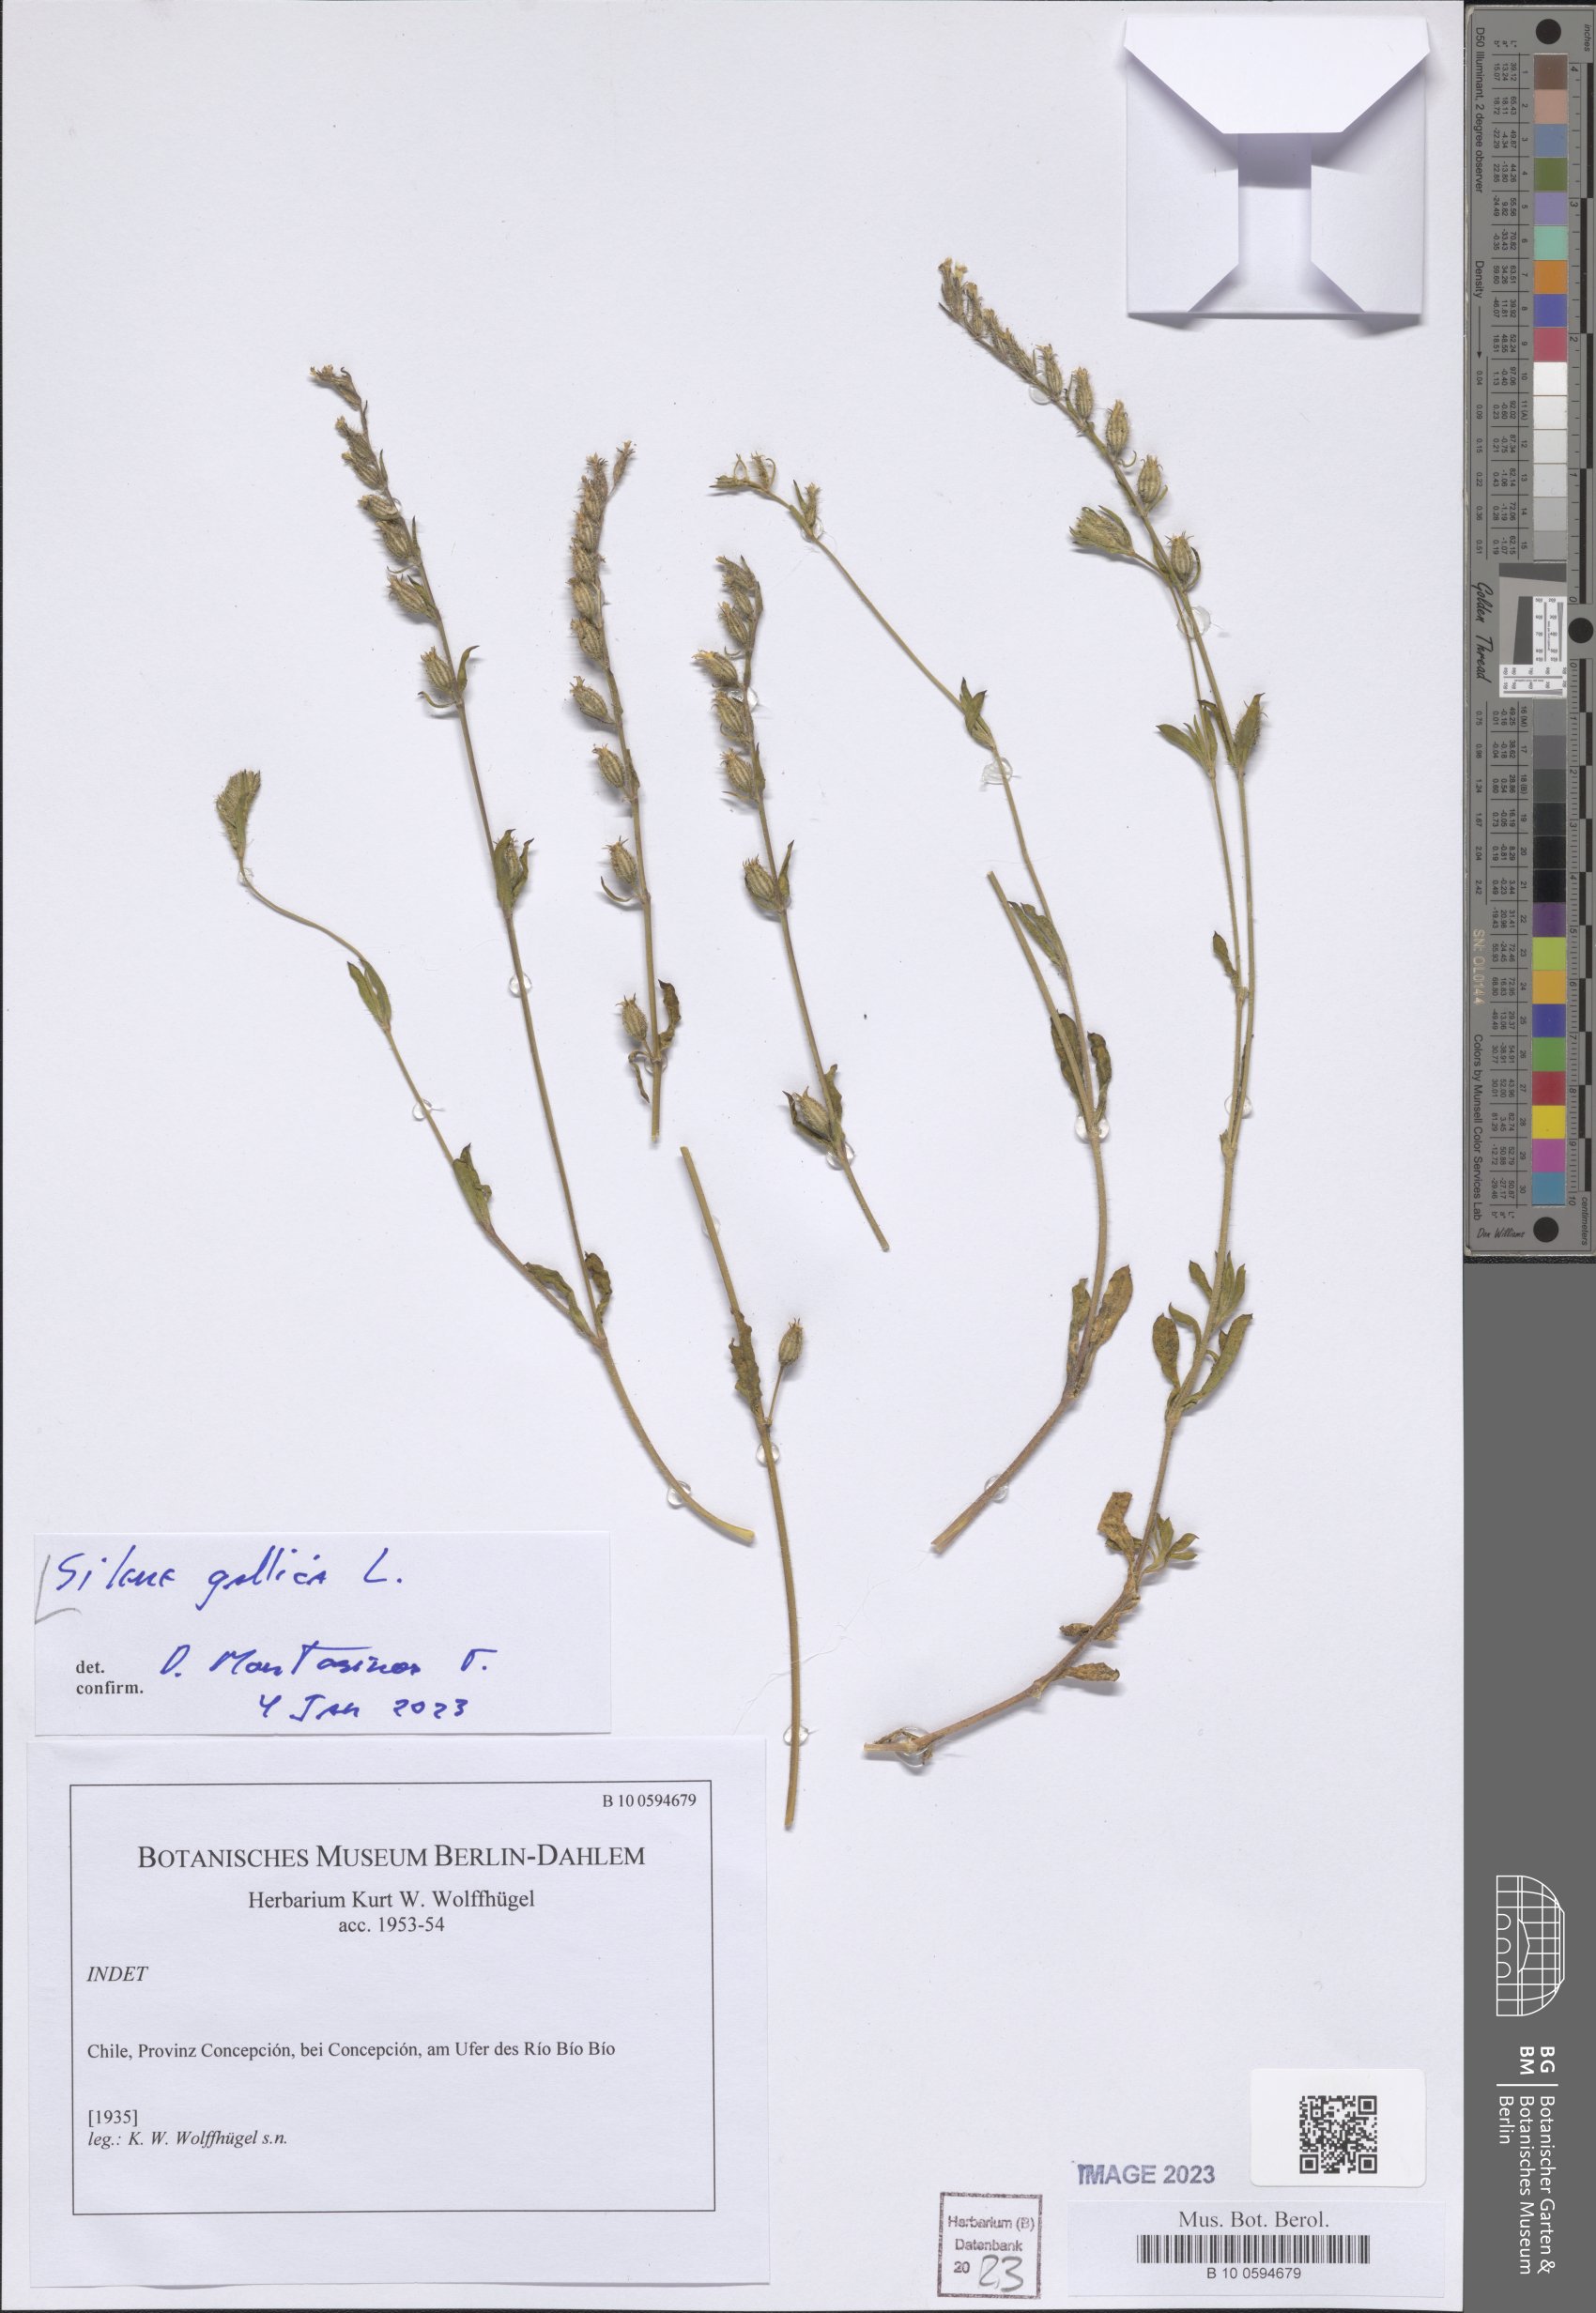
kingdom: Plantae
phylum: Tracheophyta
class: Magnoliopsida
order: Caryophyllales
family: Caryophyllaceae
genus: Silene
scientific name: Silene gallica
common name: Small-flowered catchfly
